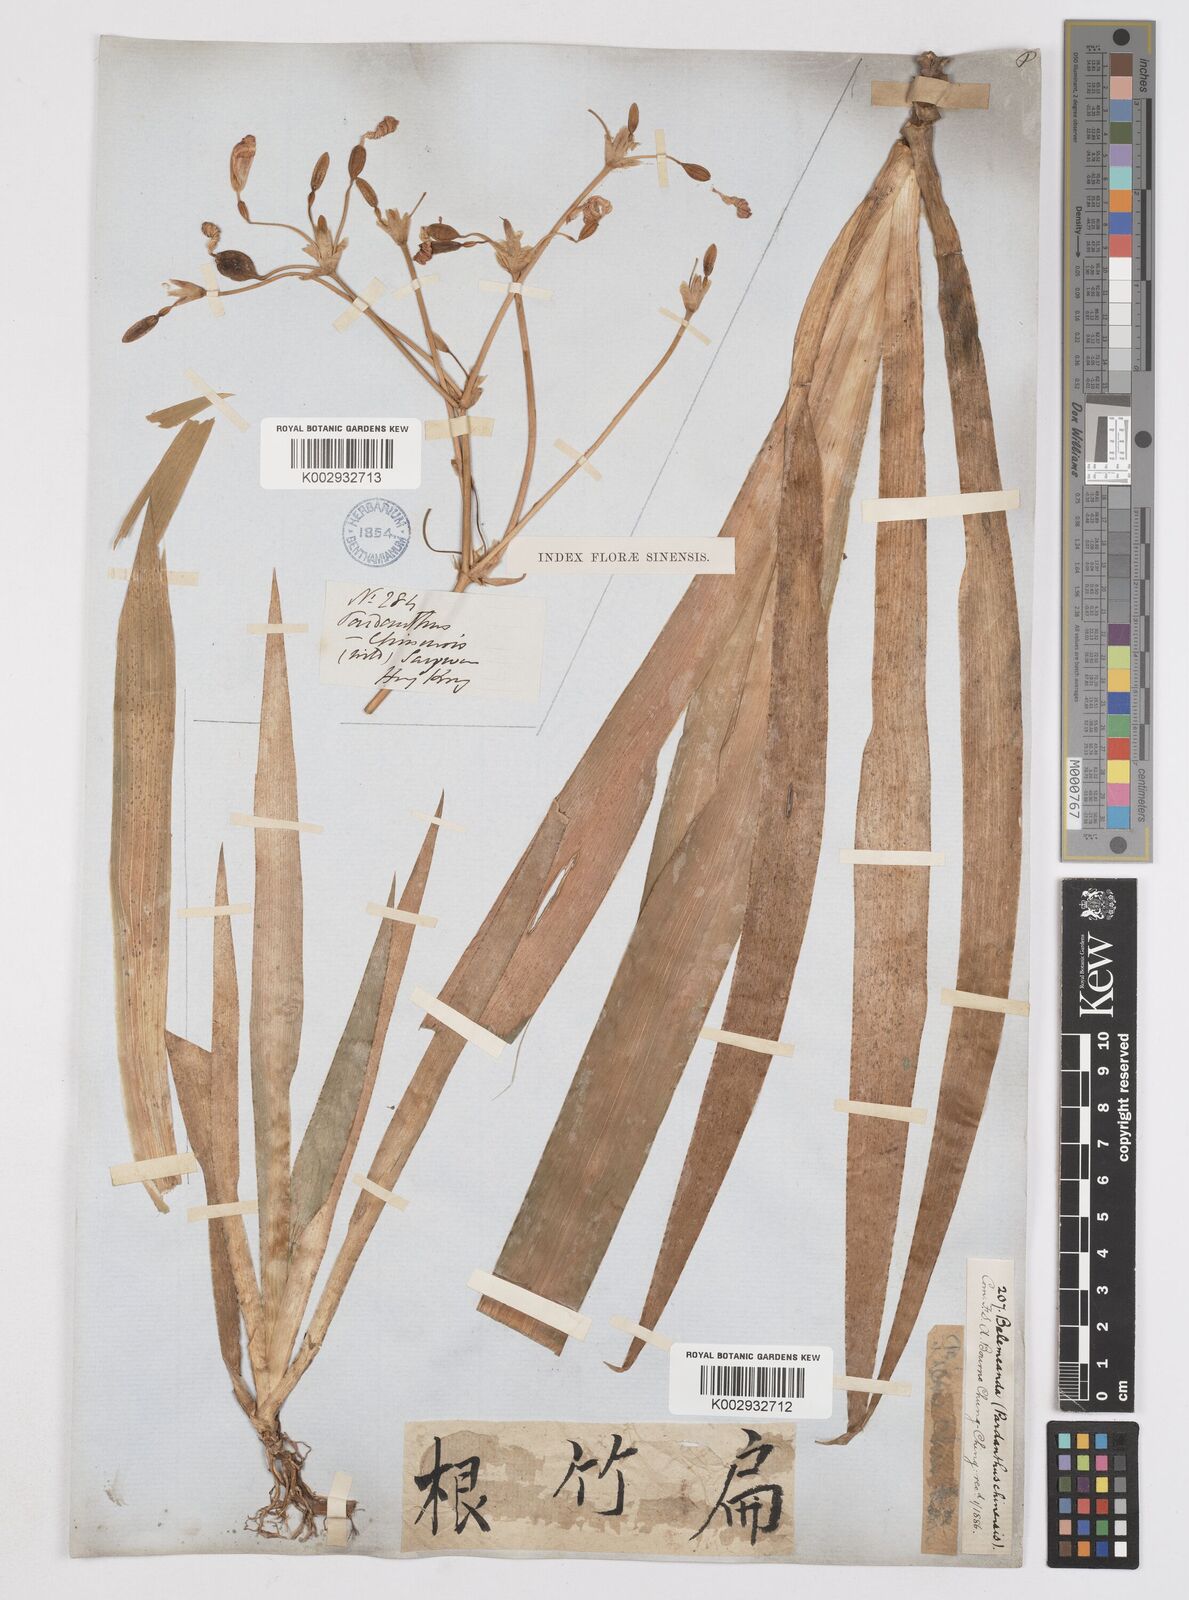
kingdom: Plantae
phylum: Tracheophyta
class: Liliopsida
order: Asparagales
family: Iridaceae
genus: Iris
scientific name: Iris
